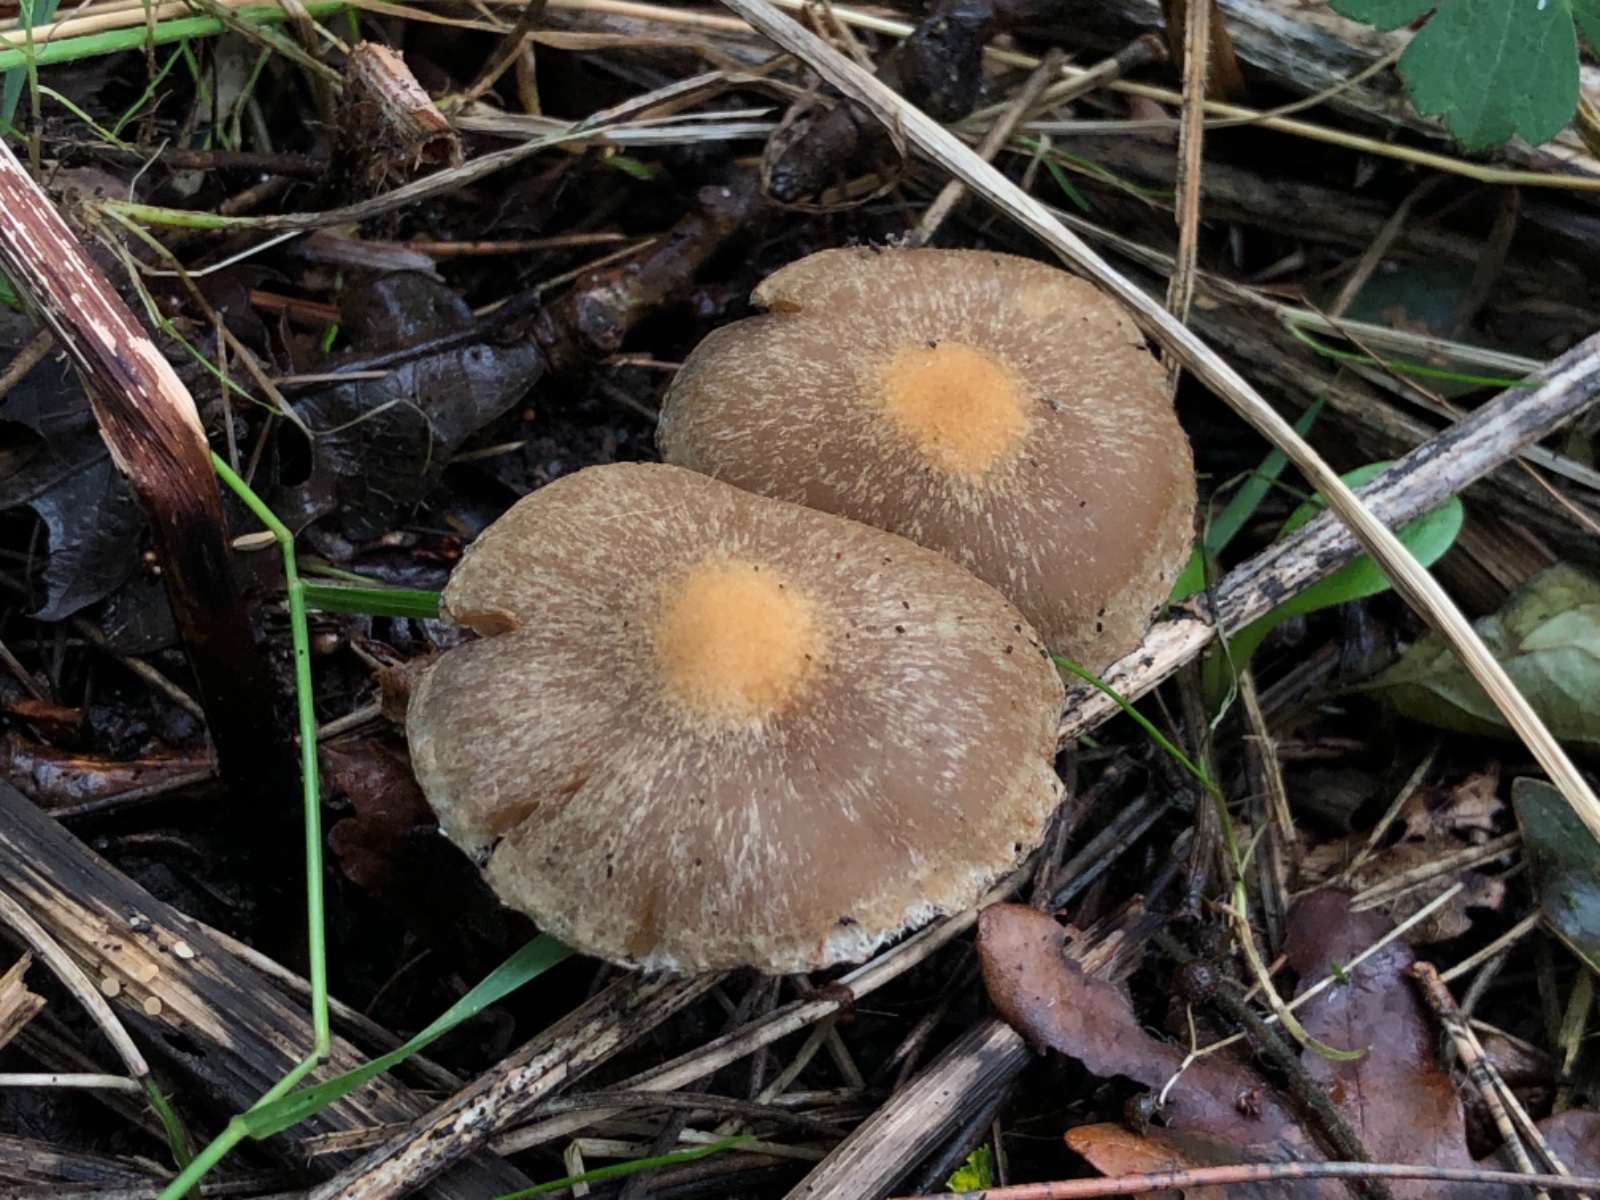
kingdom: Fungi
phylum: Basidiomycota
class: Agaricomycetes
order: Agaricales
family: Psathyrellaceae
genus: Lacrymaria
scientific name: Lacrymaria lacrymabunda
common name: grædende mørkhat
